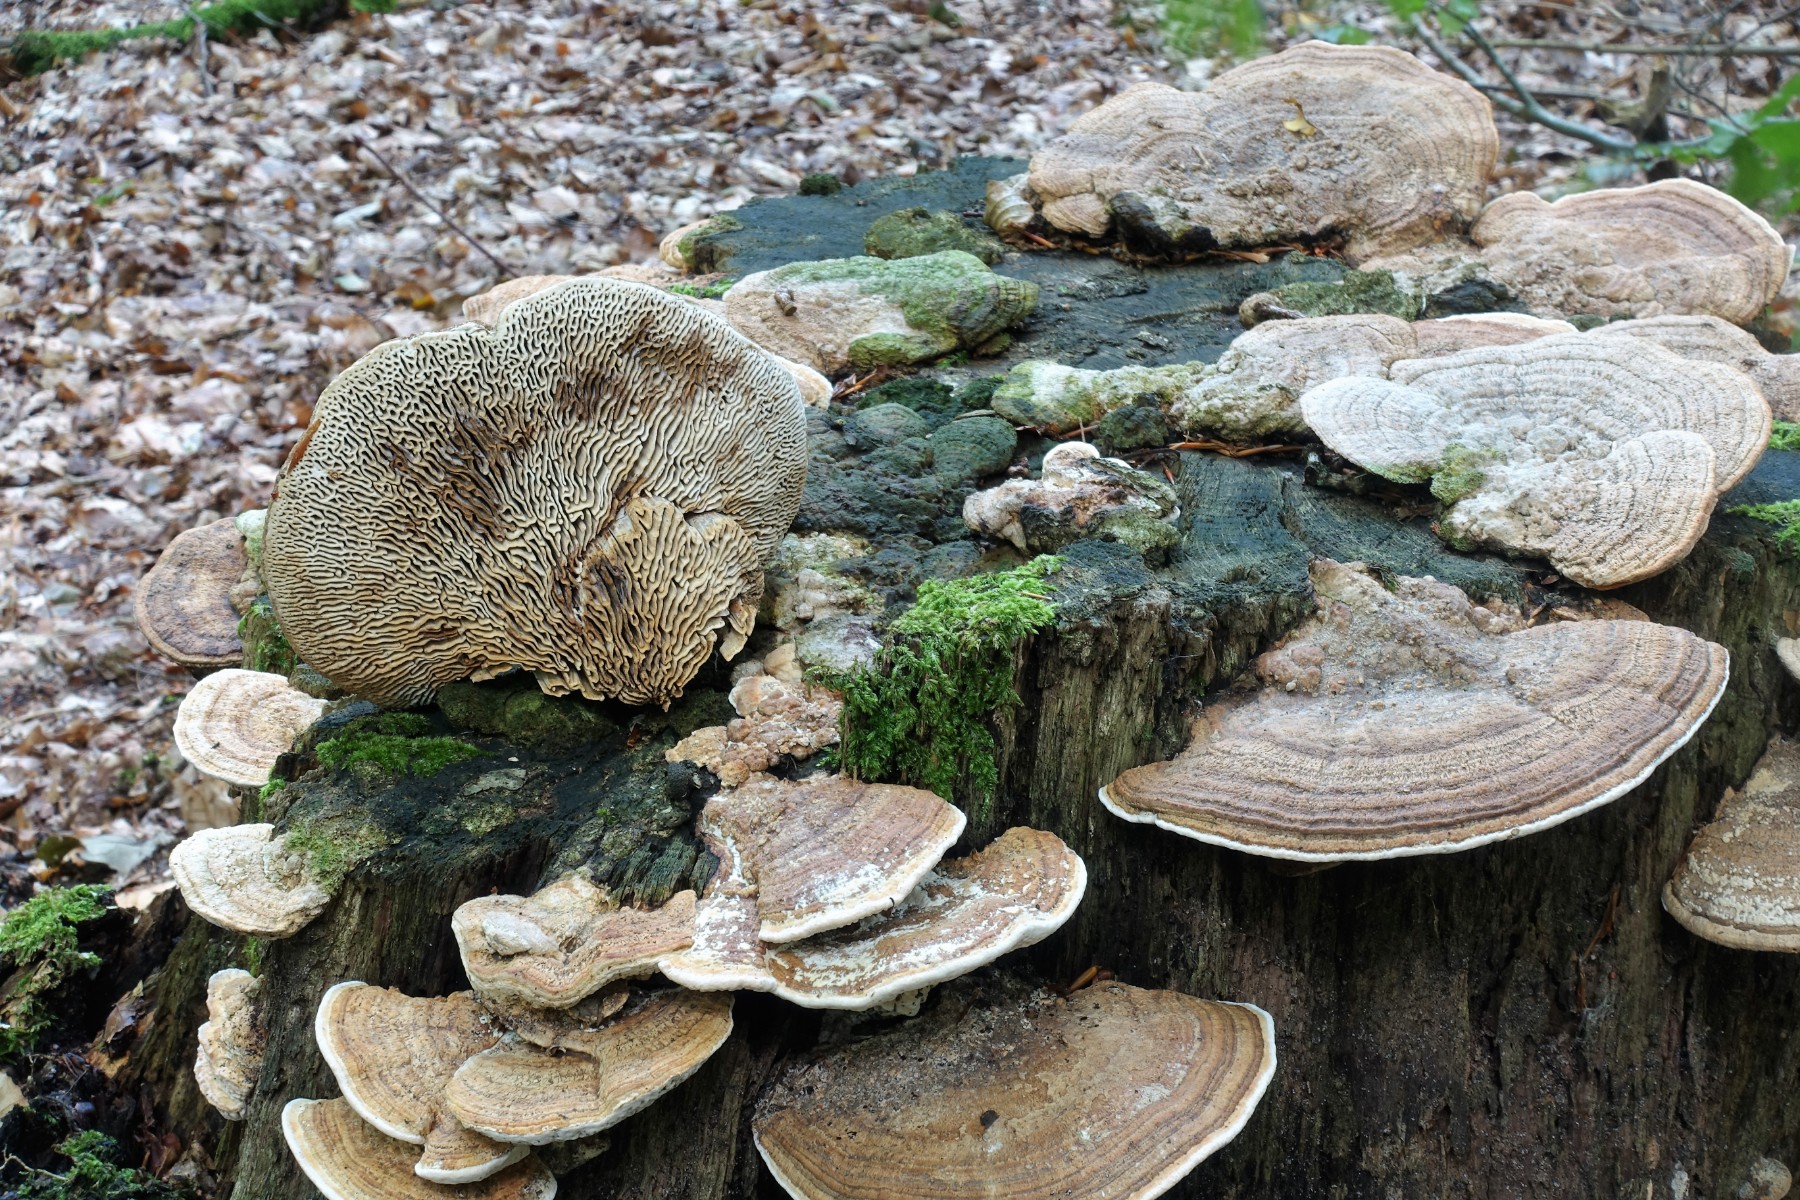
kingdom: Fungi
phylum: Basidiomycota
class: Agaricomycetes
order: Polyporales
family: Fomitopsidaceae
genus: Daedalea
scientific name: Daedalea quercina
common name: ege-labyrintsvamp
